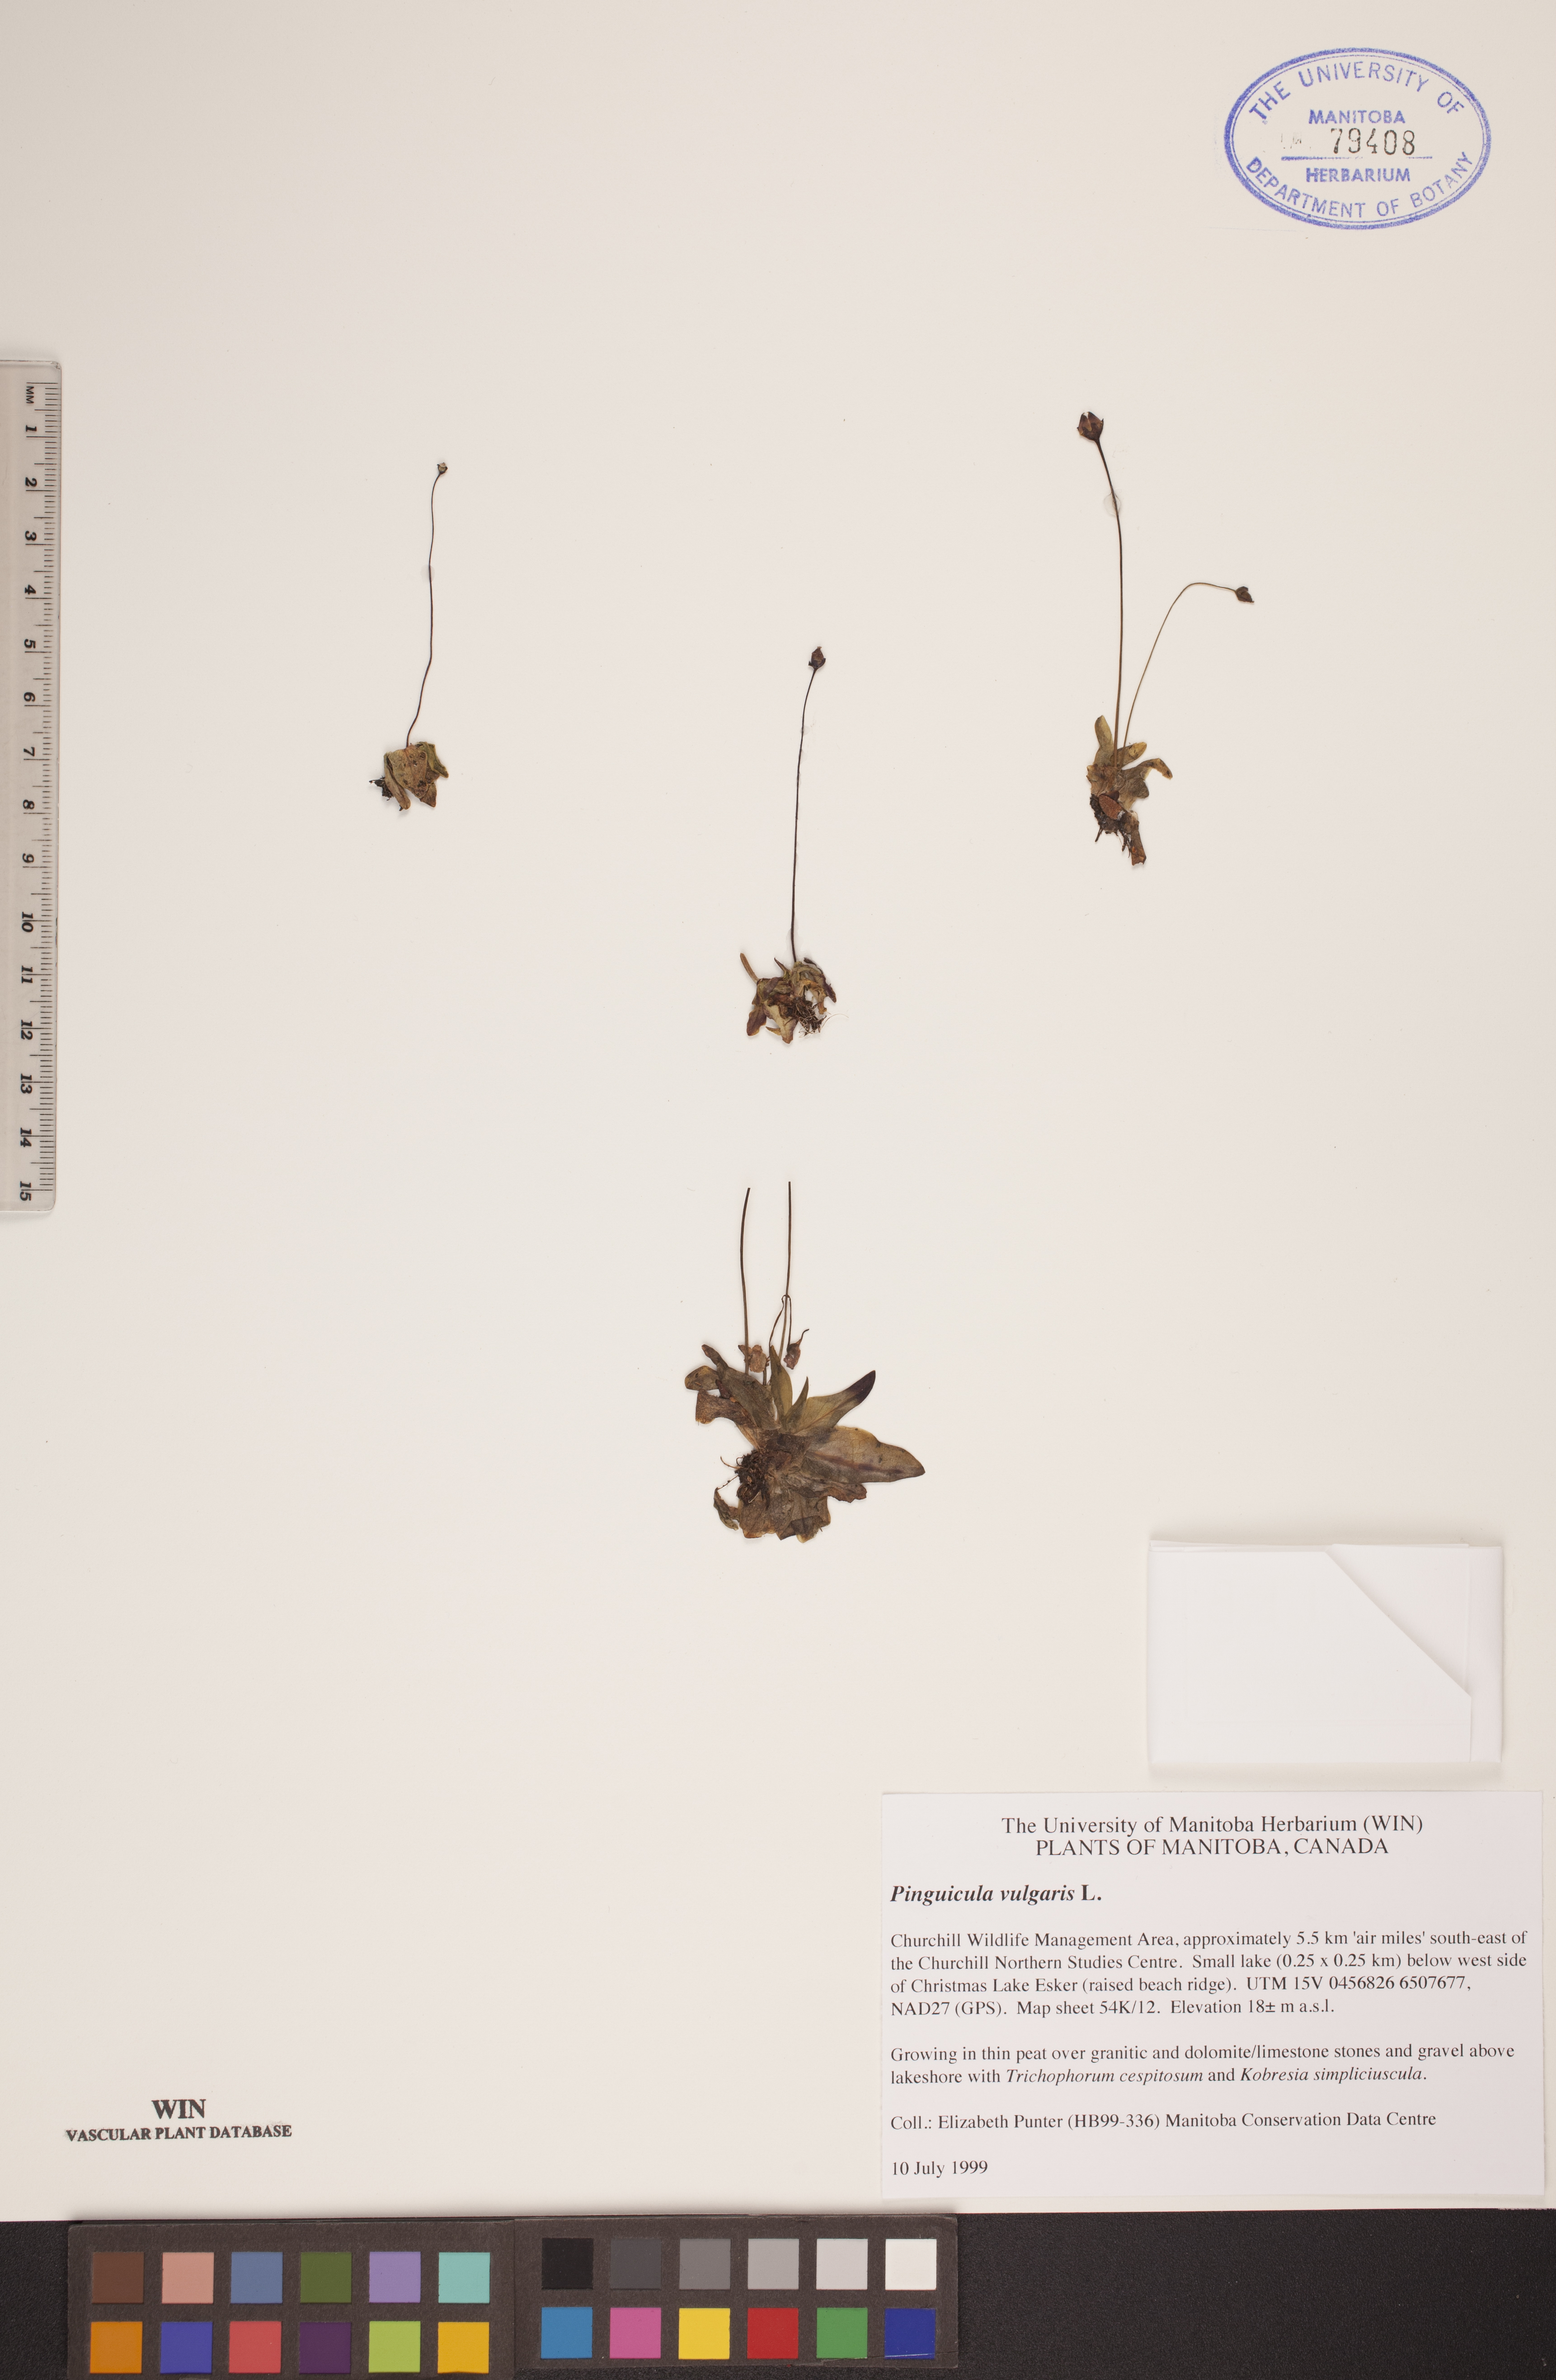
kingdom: Plantae
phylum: Tracheophyta
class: Magnoliopsida
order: Lamiales
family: Lentibulariaceae
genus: Pinguicula
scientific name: Pinguicula vulgaris
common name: Common butterwort
